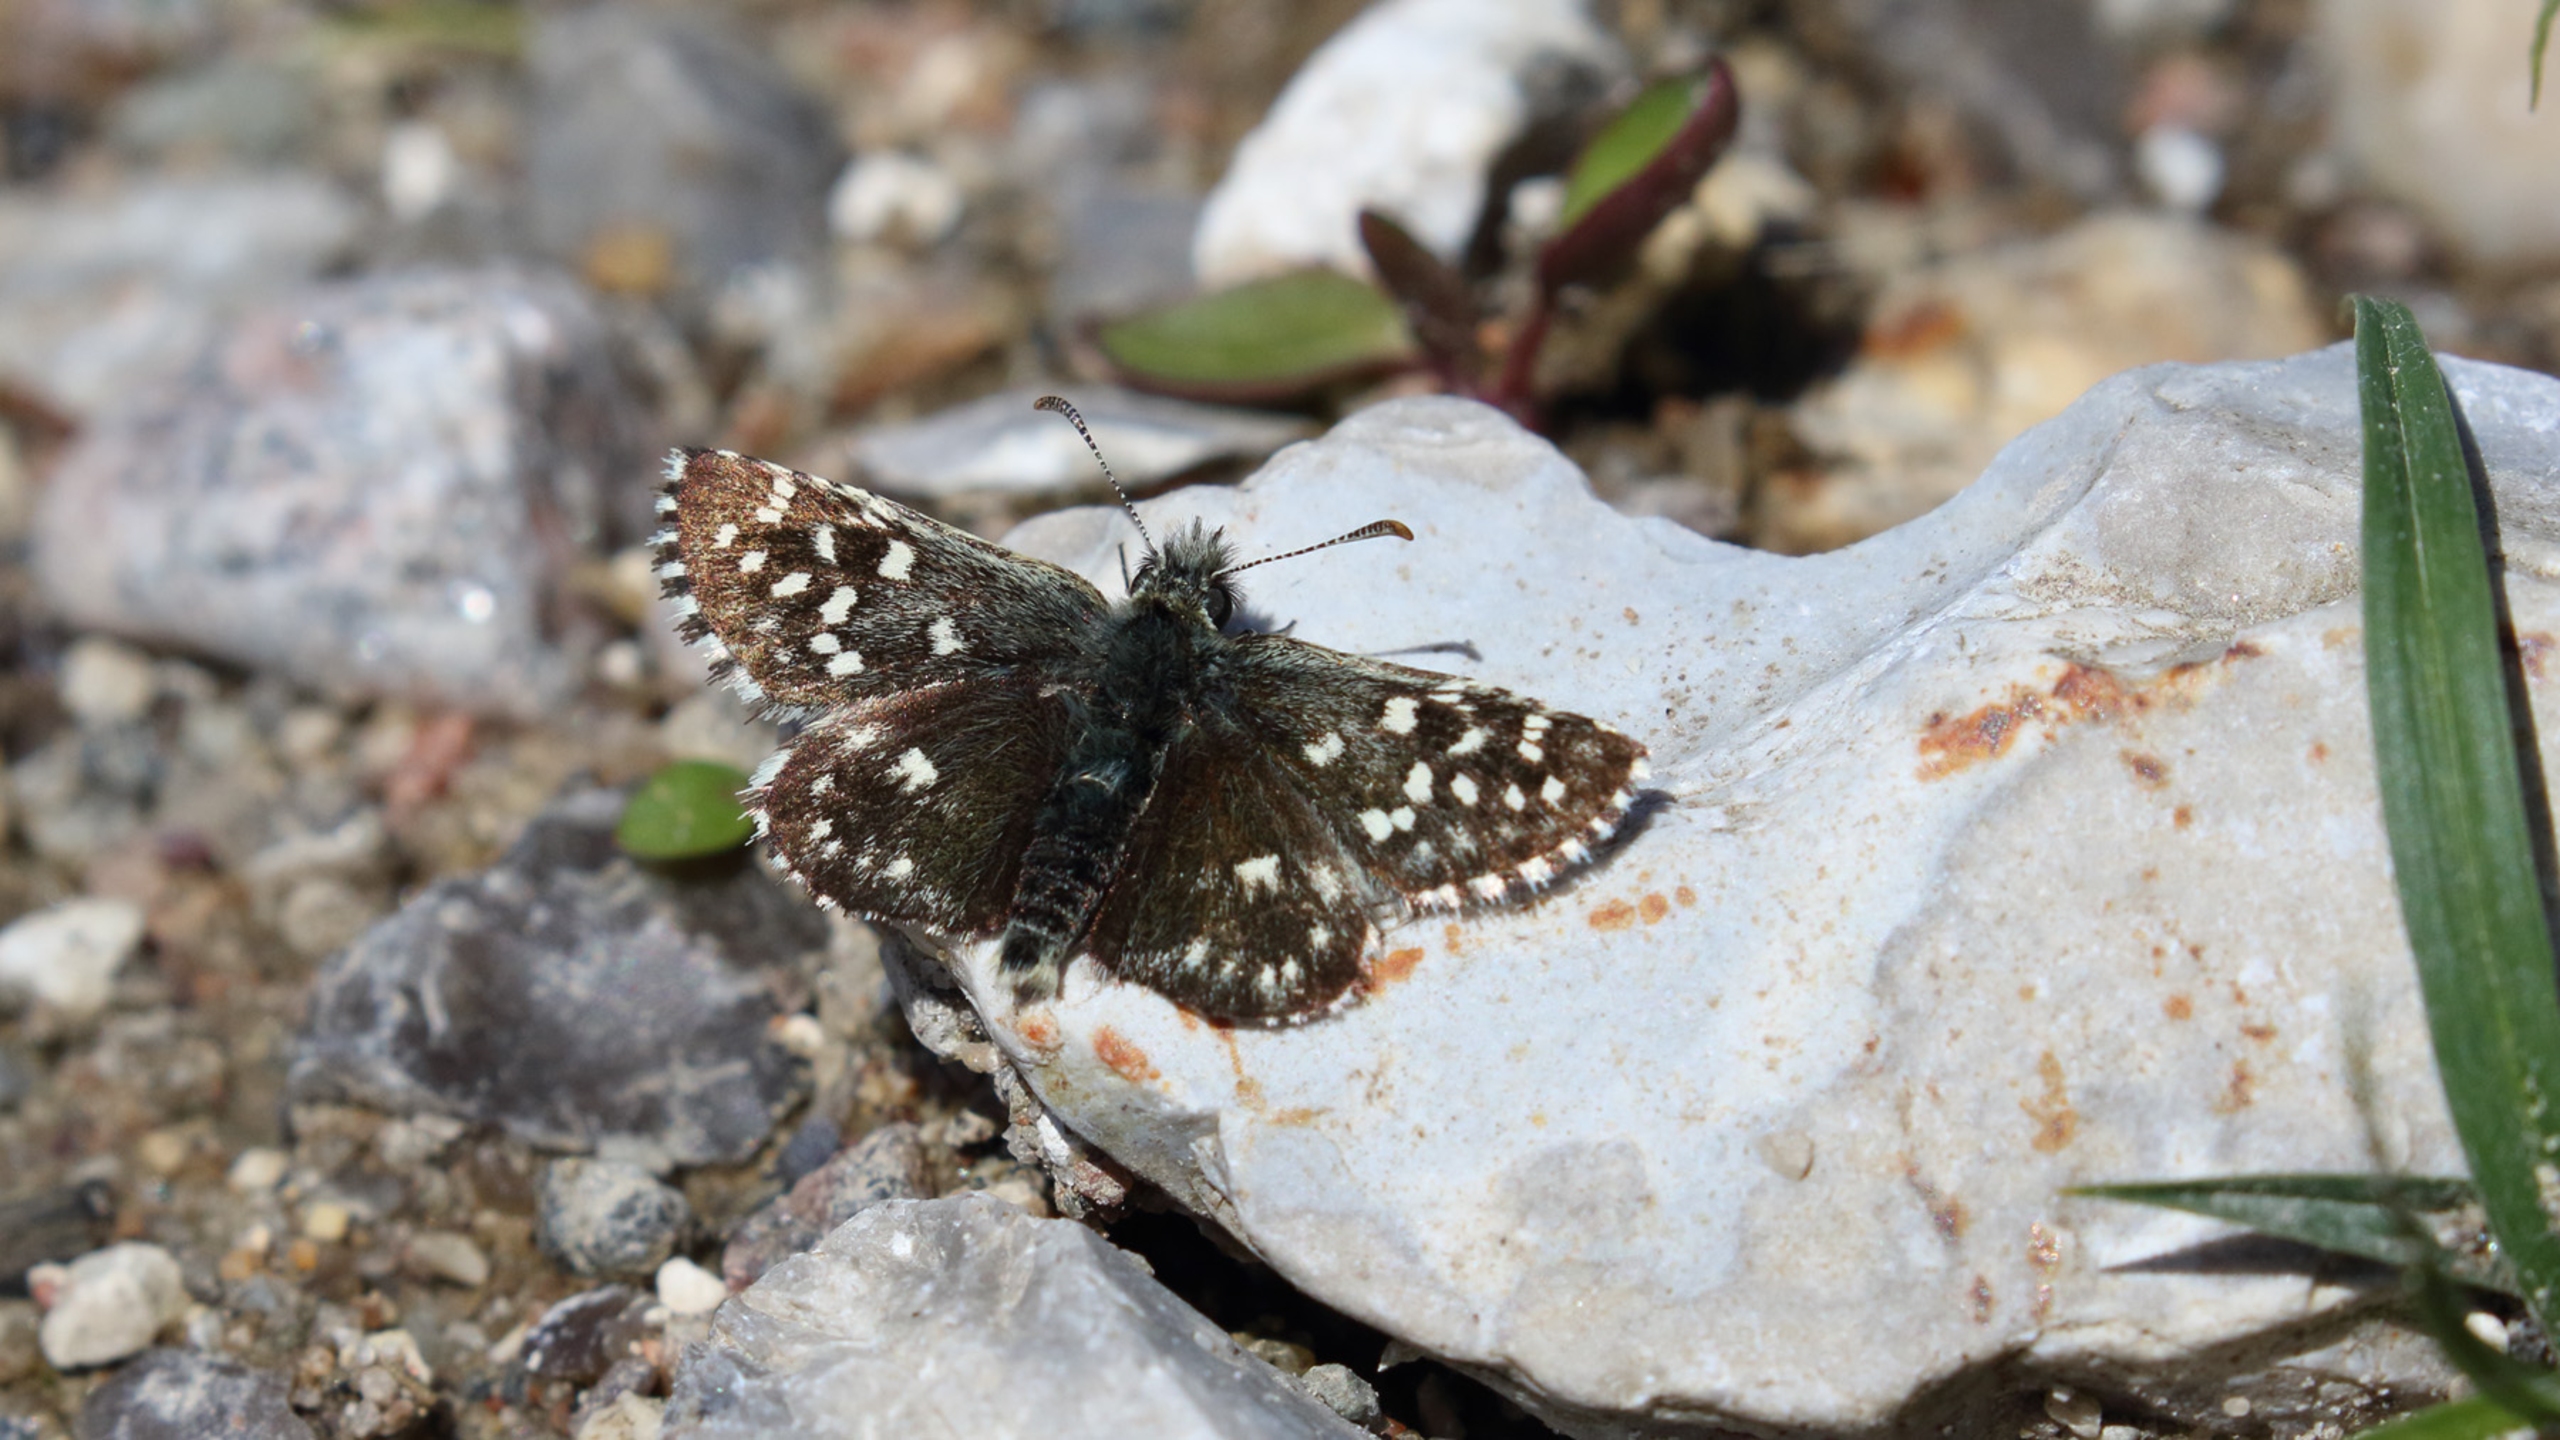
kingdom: Animalia
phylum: Arthropoda
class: Insecta
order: Lepidoptera
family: Hesperiidae
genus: Pyrgus
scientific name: Pyrgus malvae
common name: Spættet bredpande
